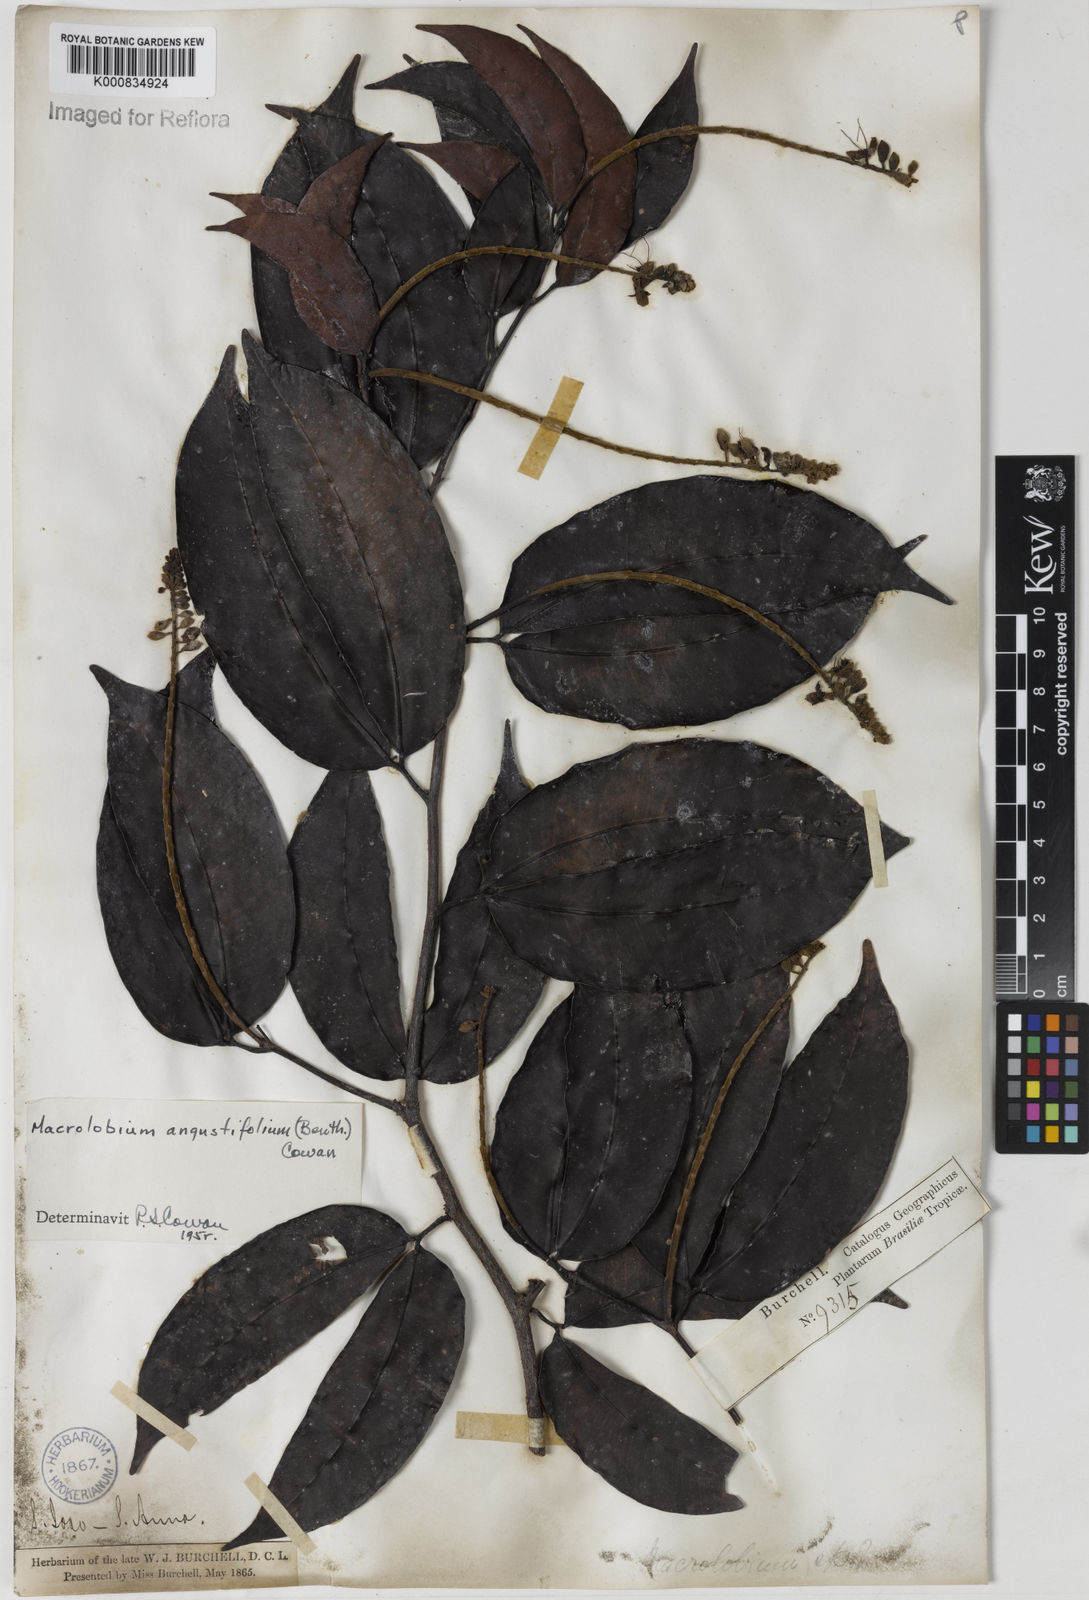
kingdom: Plantae
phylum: Tracheophyta
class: Magnoliopsida
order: Fabales
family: Fabaceae
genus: Macrolobium
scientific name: Macrolobium angustifolium
